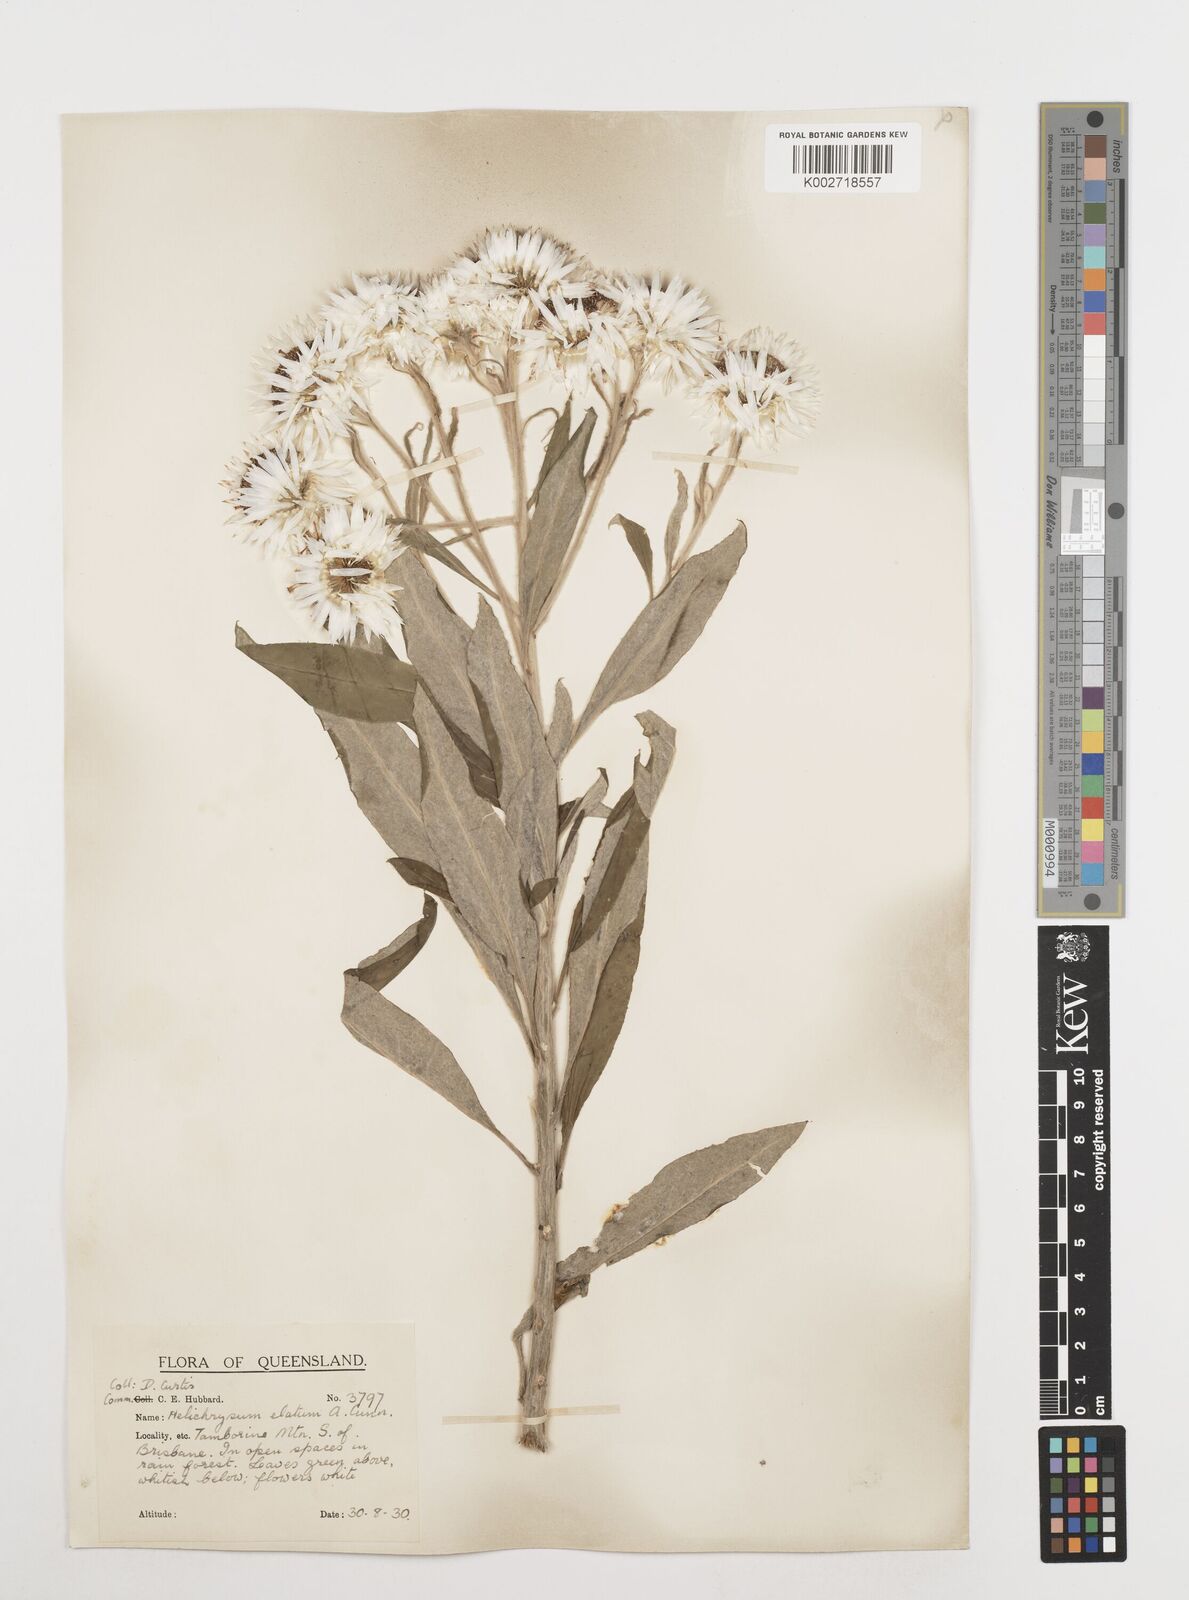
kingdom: Plantae
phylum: Tracheophyta
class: Magnoliopsida
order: Asterales
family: Asteraceae
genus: Leucozoma
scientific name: Leucozoma elatum
